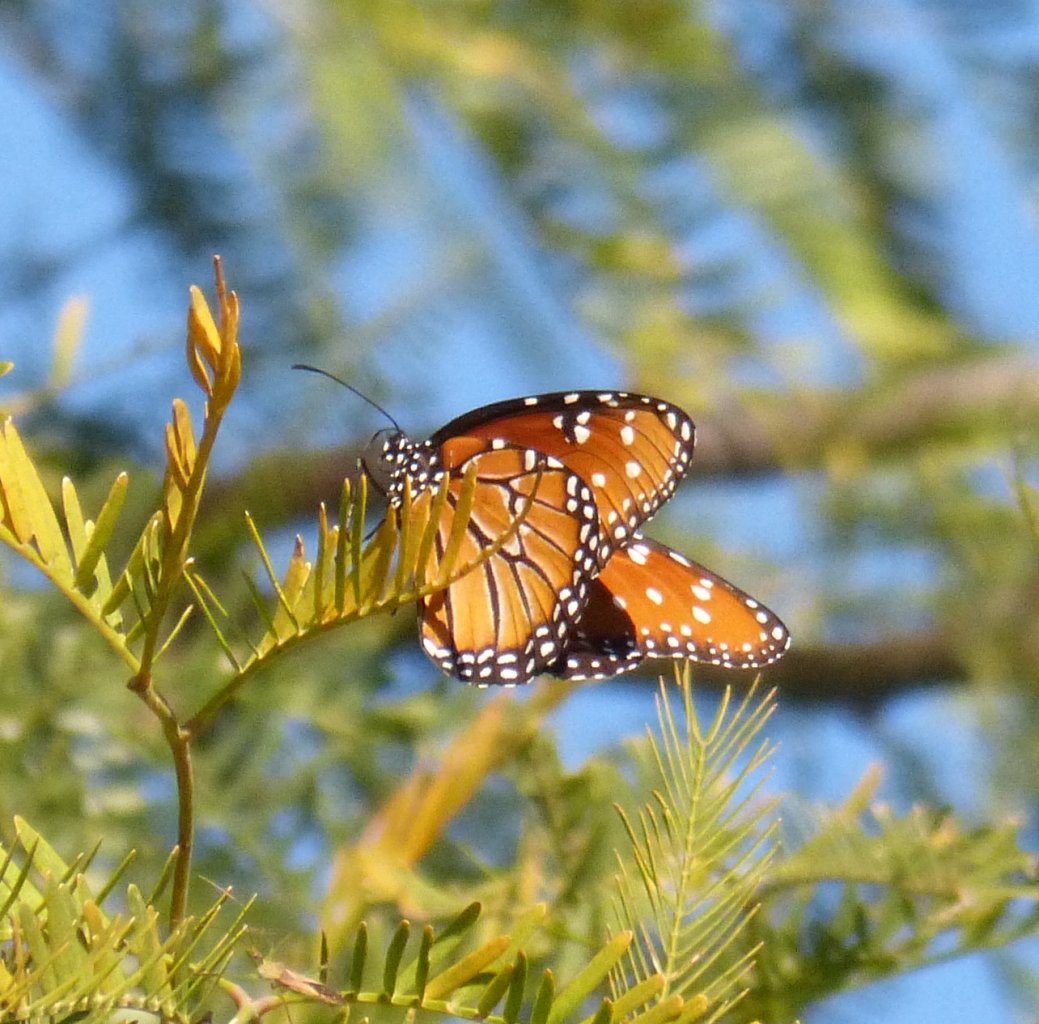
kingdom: Animalia
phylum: Arthropoda
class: Insecta
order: Lepidoptera
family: Nymphalidae
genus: Danaus
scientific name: Danaus gilippus
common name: Queen
